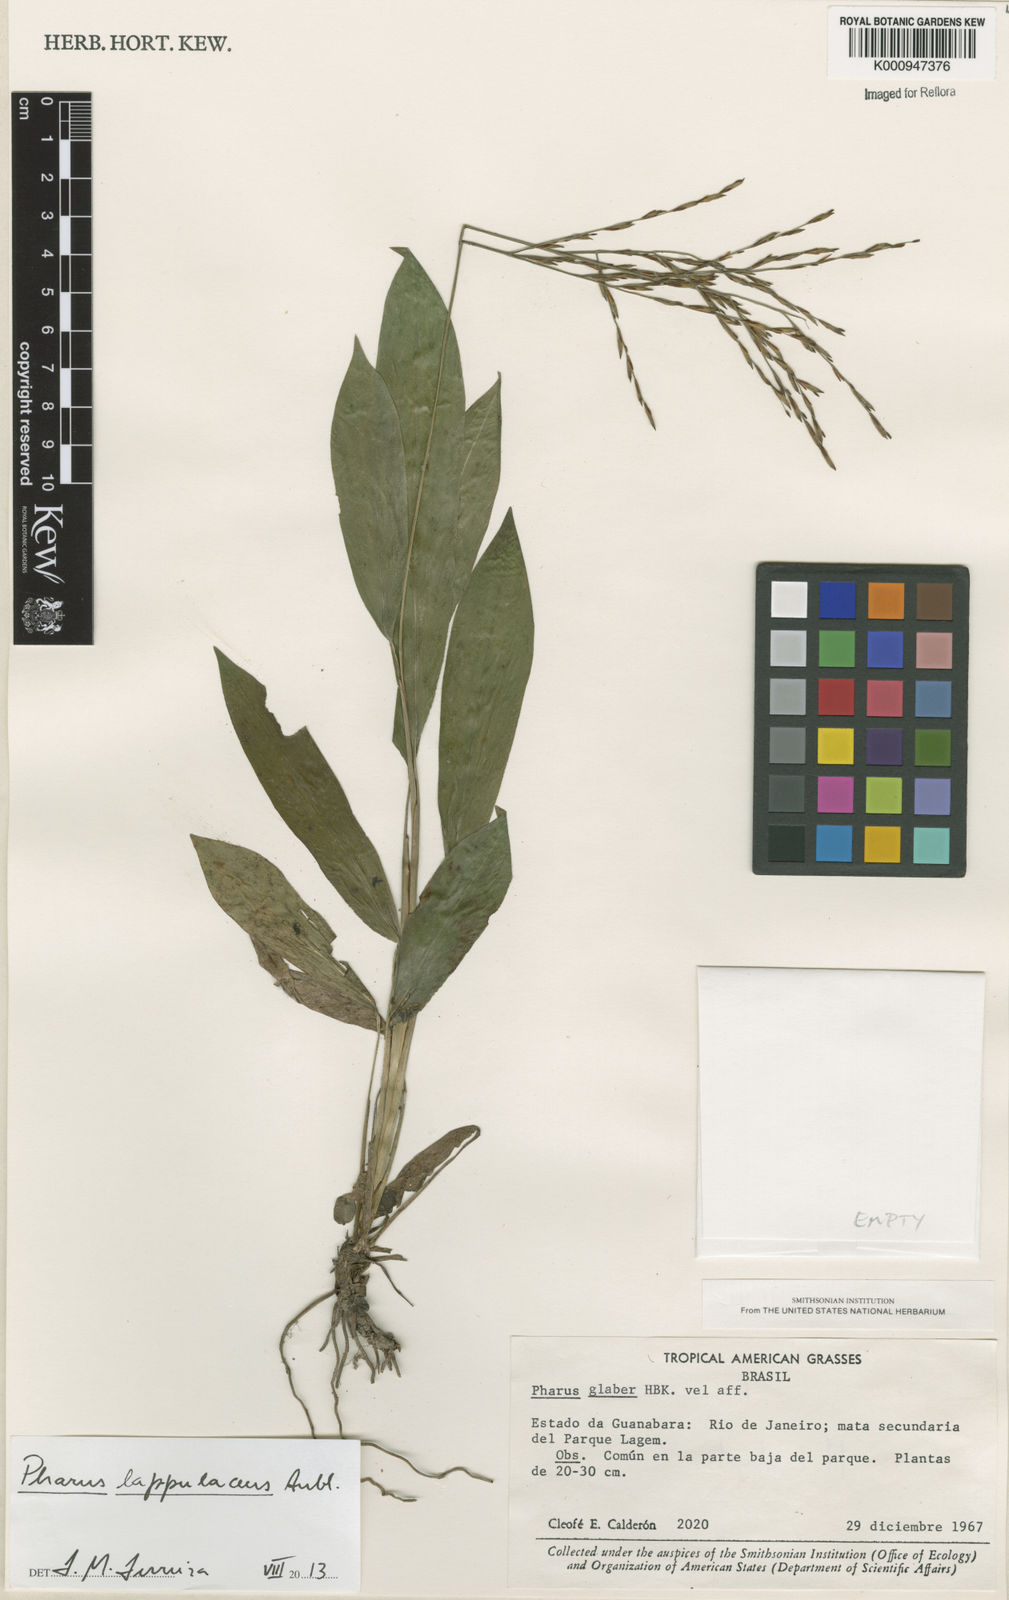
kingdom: Plantae
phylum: Tracheophyta
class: Liliopsida
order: Poales
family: Poaceae
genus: Pharus
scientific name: Pharus lappulaceus
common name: Creeping leafstalk grass
